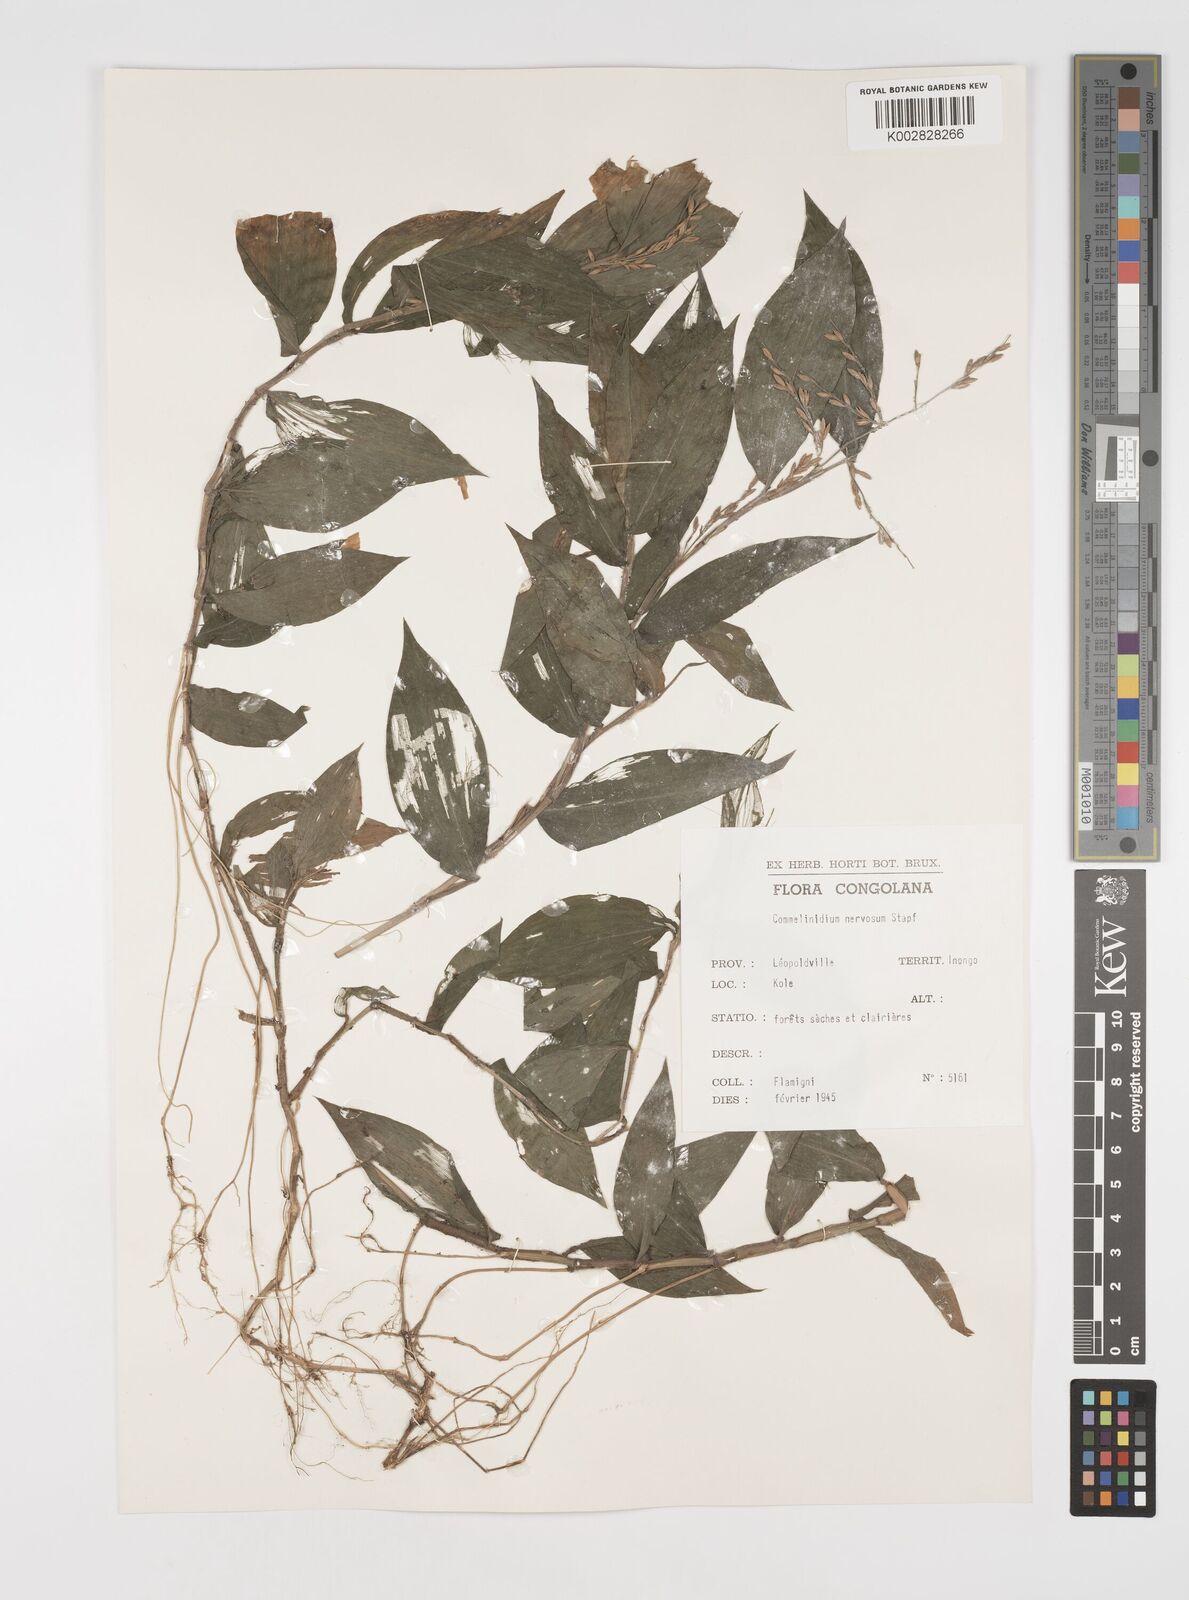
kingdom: Plantae
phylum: Tracheophyta
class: Liliopsida
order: Poales
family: Poaceae
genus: Acroceras
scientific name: Acroceras gabunense
